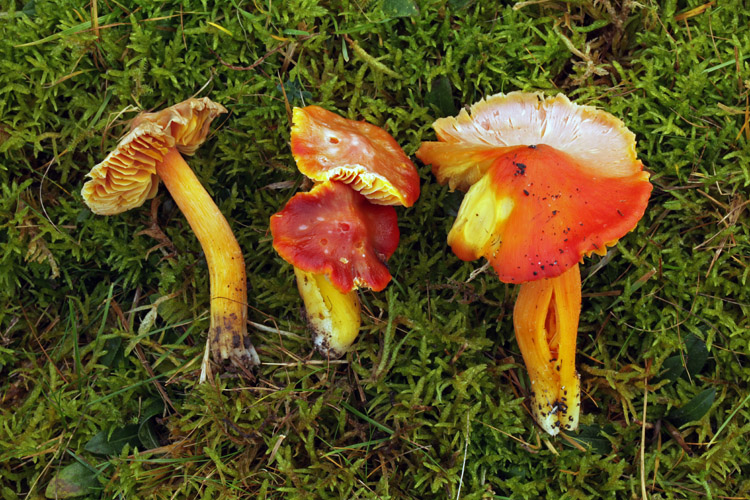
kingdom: Fungi
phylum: Basidiomycota
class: Agaricomycetes
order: Agaricales
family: Hygrophoraceae
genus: Hygrocybe
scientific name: Hygrocybe punicea
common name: skarlagen-vokshat
